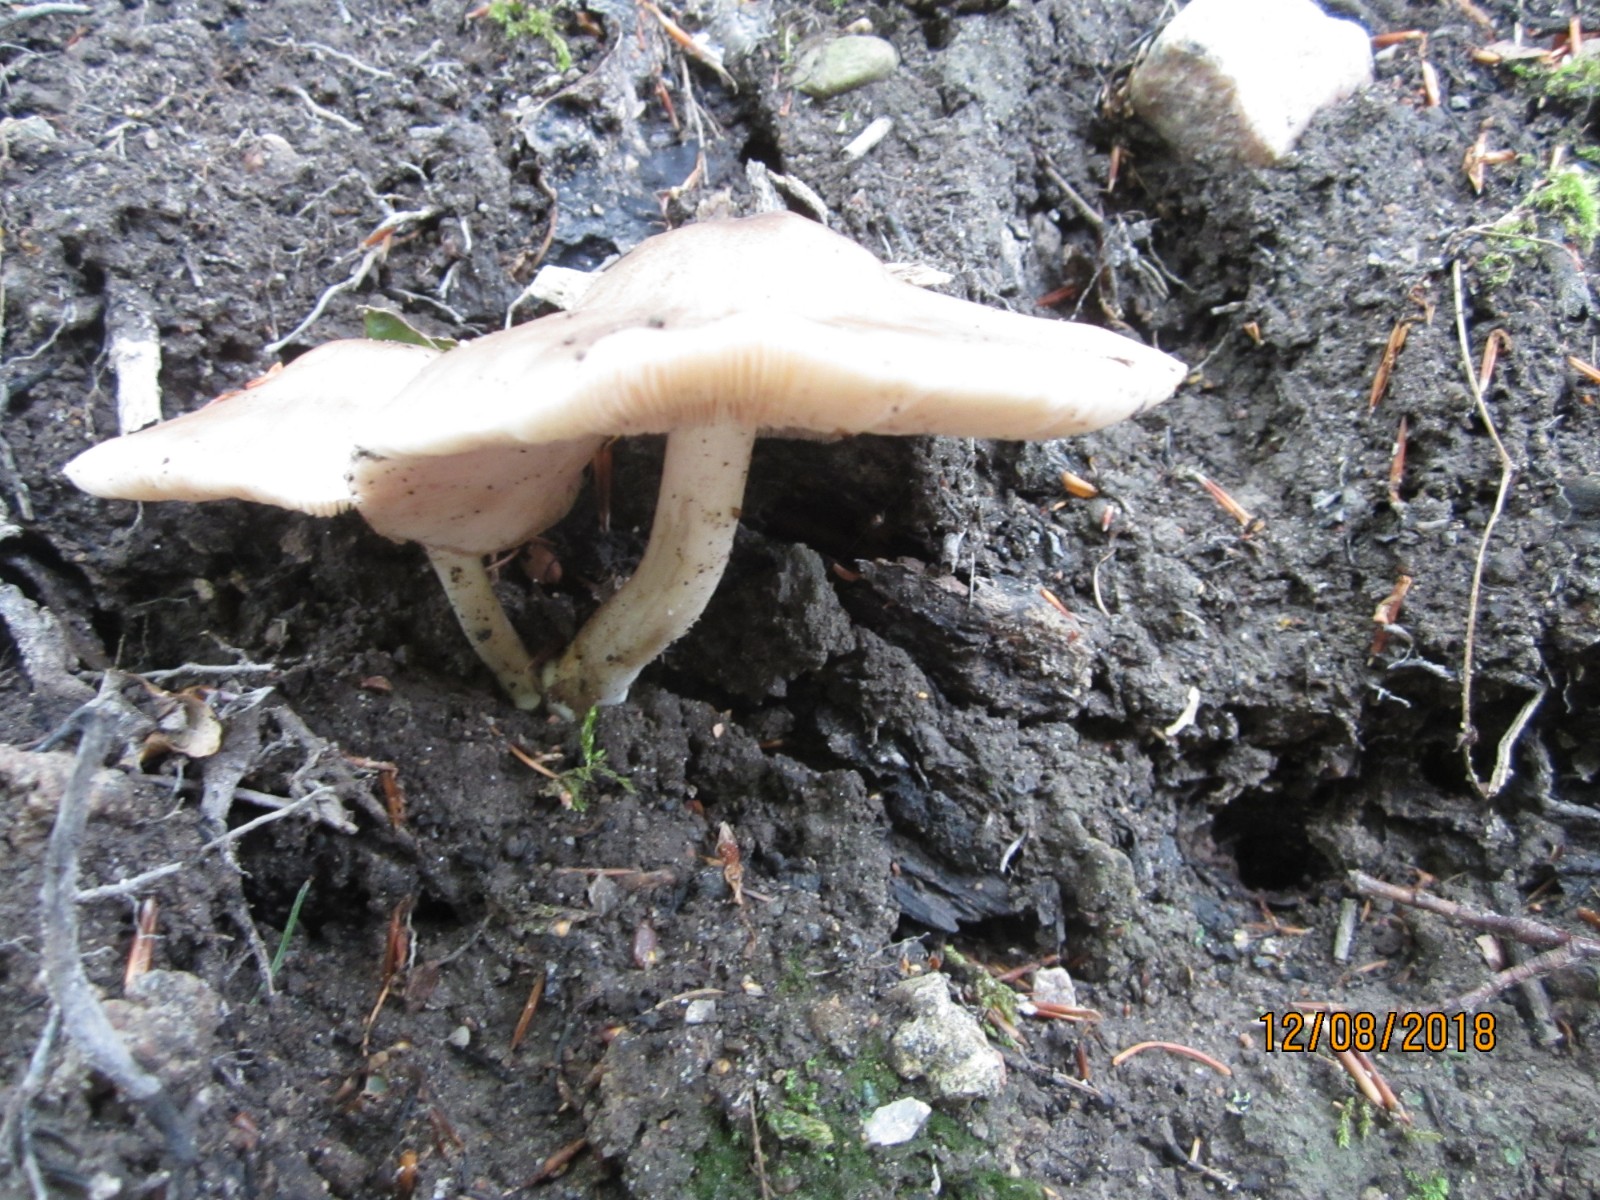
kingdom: Fungi
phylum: Basidiomycota
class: Agaricomycetes
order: Agaricales
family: Pluteaceae
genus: Pluteus
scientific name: Pluteus cervinus
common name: sodfarvet skærmhat
